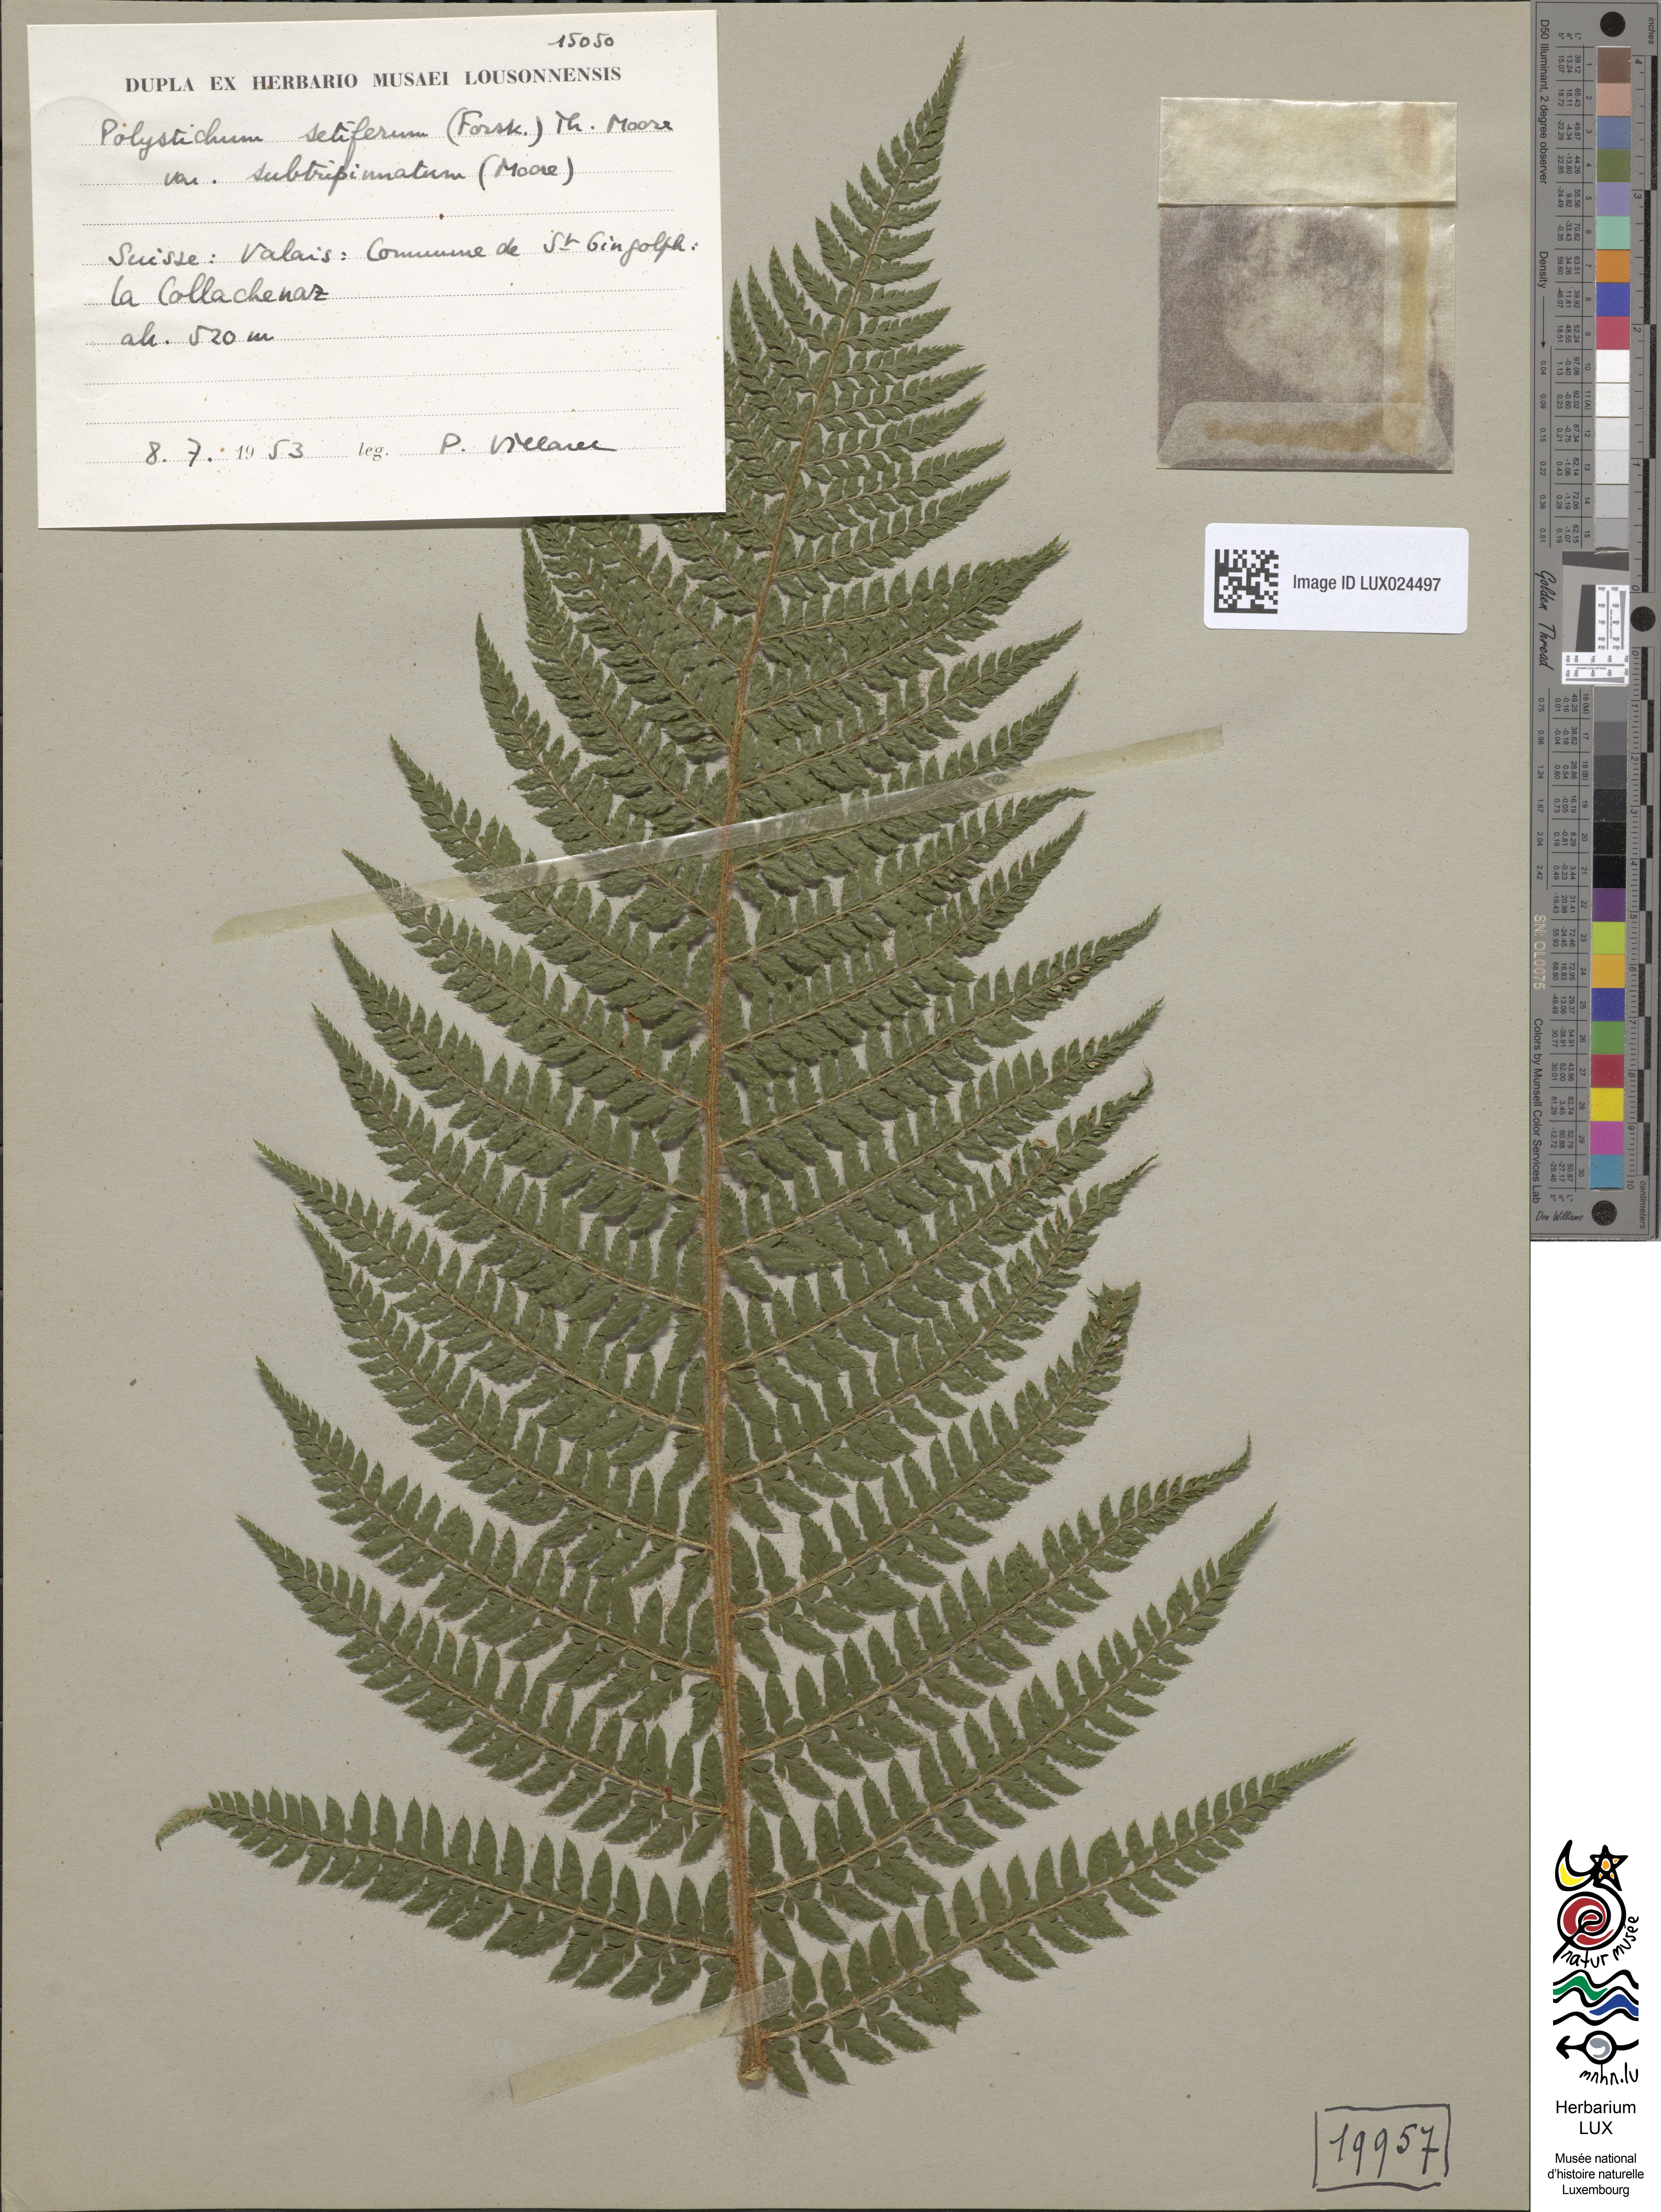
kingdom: Plantae
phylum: Tracheophyta
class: Polypodiopsida
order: Polypodiales
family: Dryopteridaceae
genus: Polystichum
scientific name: Polystichum setiferum
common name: Soft shield-fern
